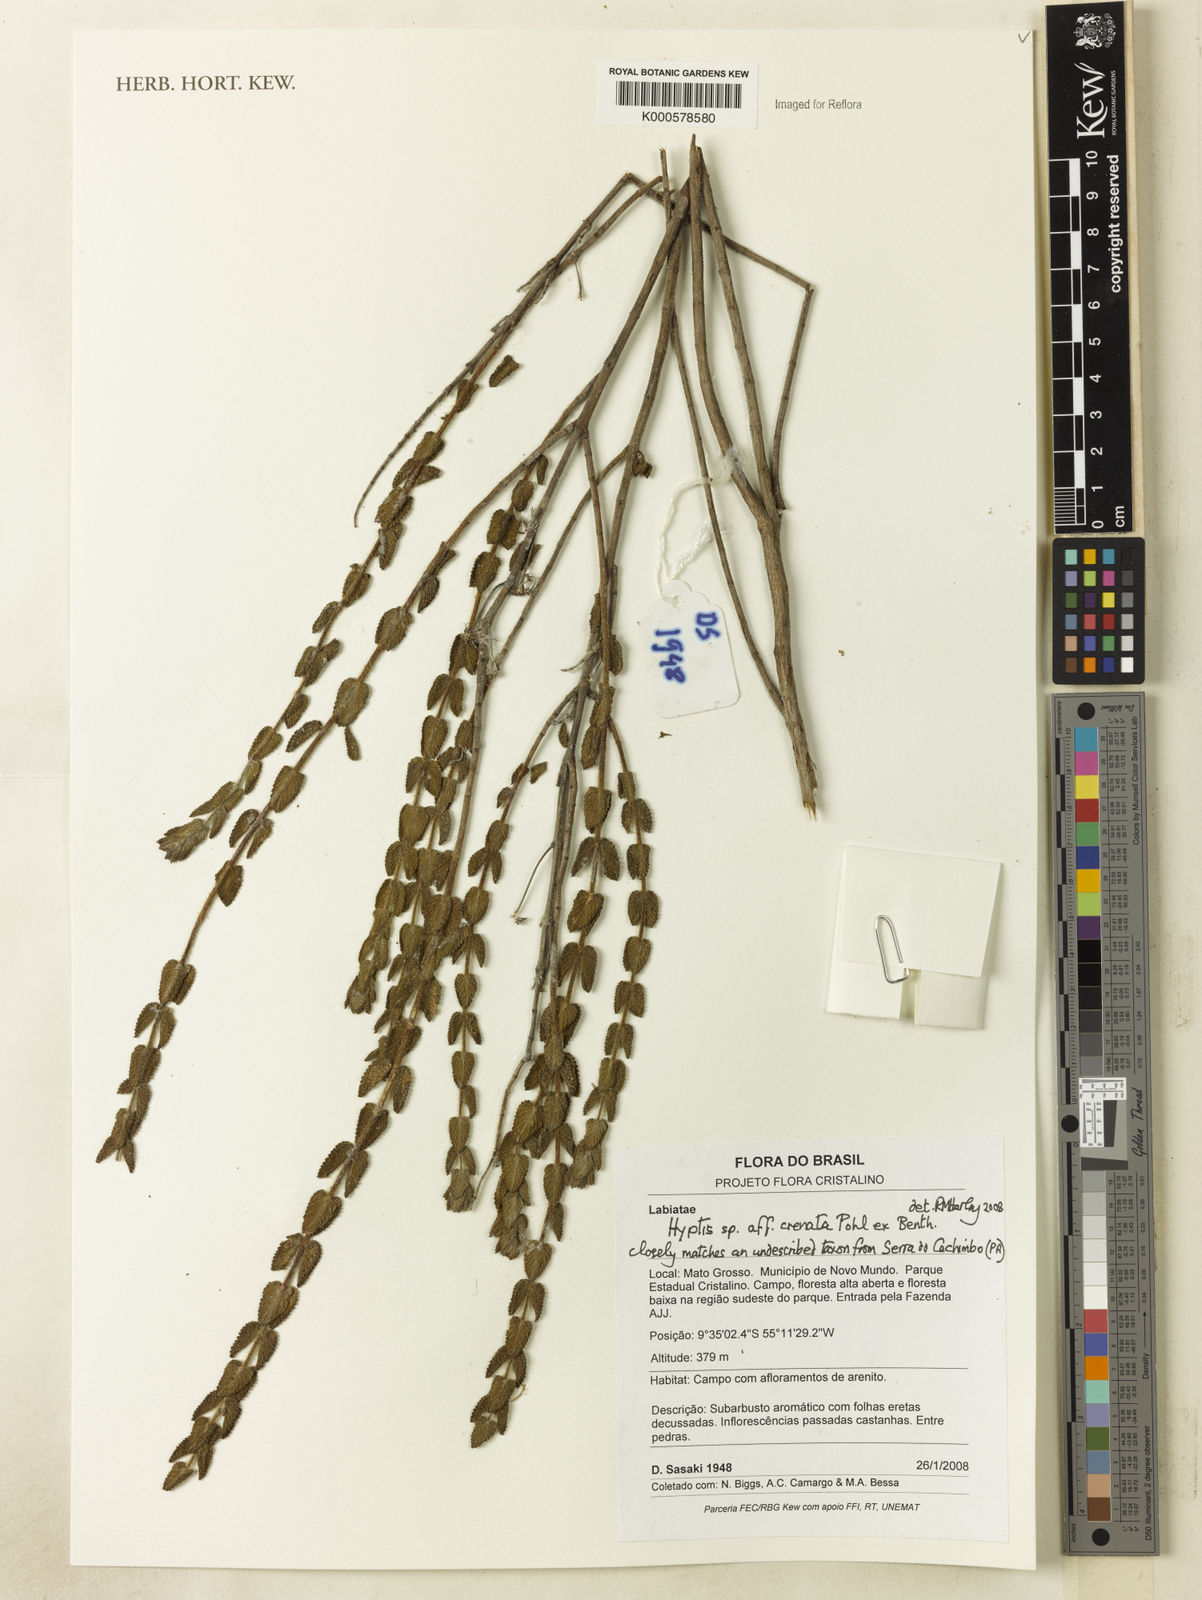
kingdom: Plantae
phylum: Tracheophyta
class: Magnoliopsida
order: Lamiales
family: Lamiaceae
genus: Hyptis
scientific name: Hyptis crenata
